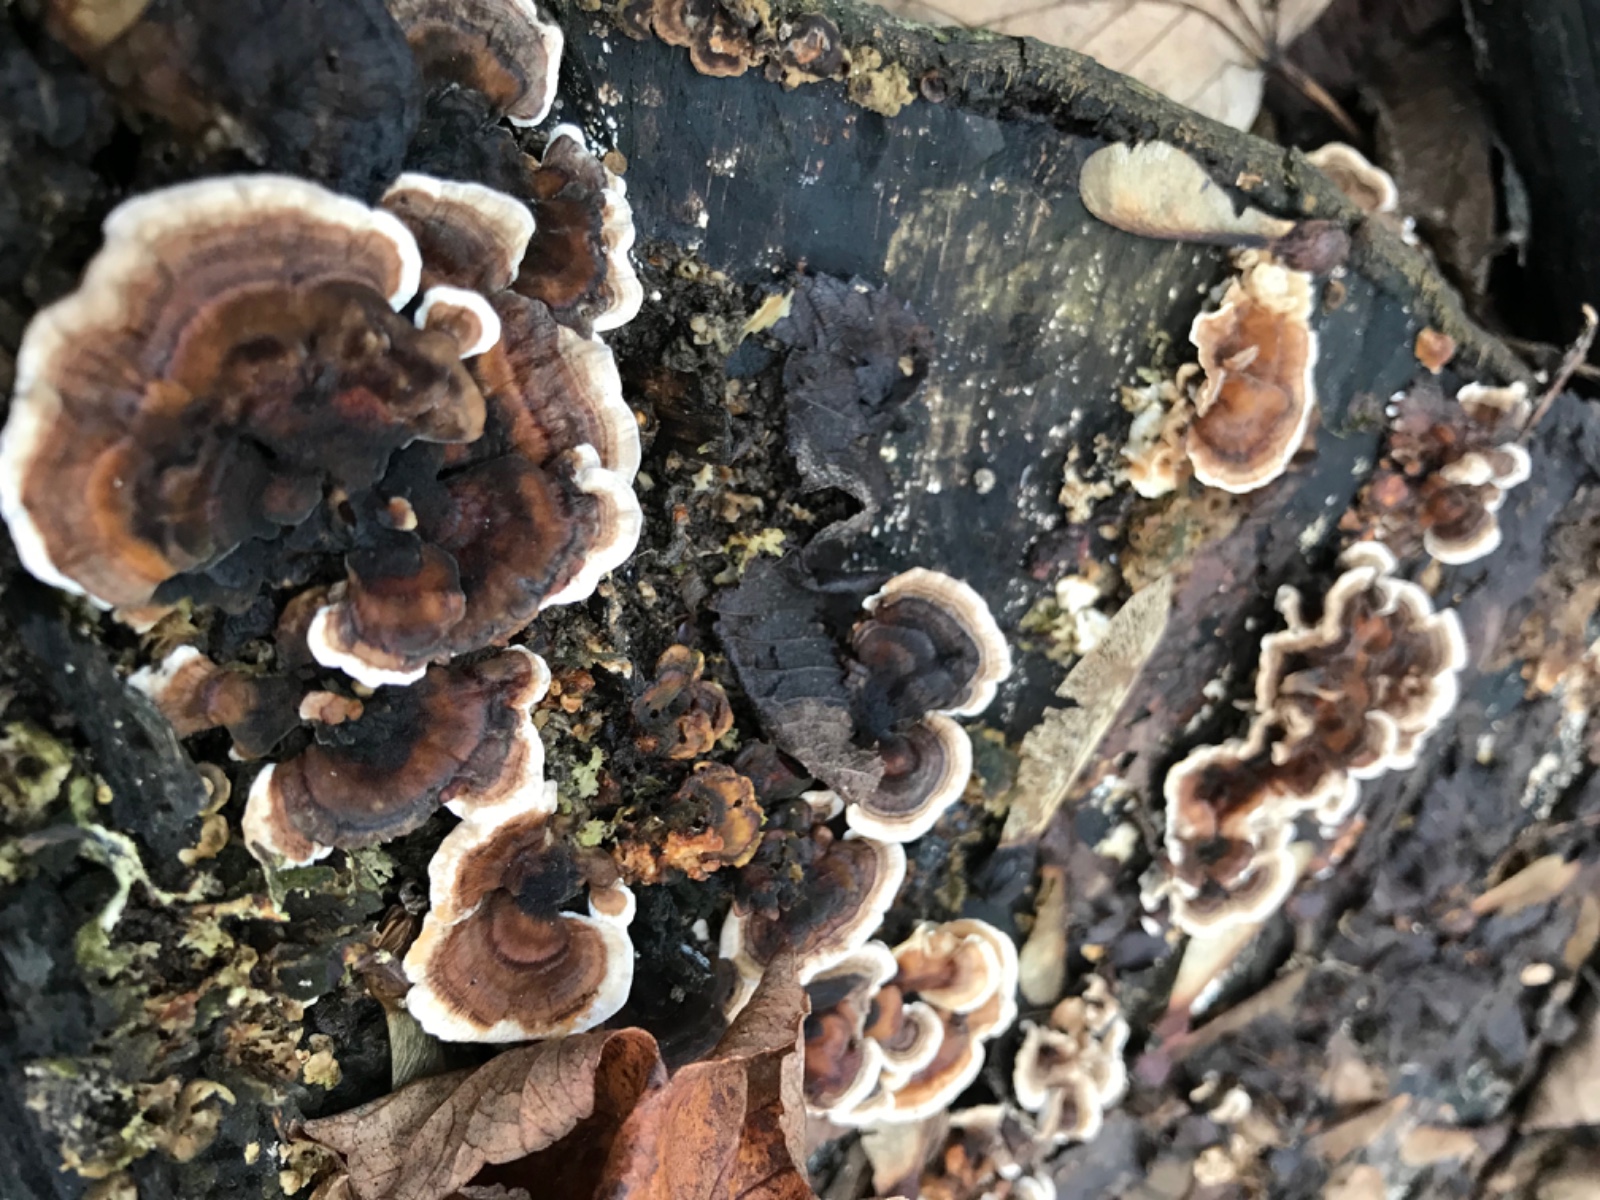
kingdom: Fungi
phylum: Basidiomycota
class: Agaricomycetes
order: Polyporales
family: Polyporaceae
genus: Trametes
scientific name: Trametes versicolor
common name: broget læderporesvamp
